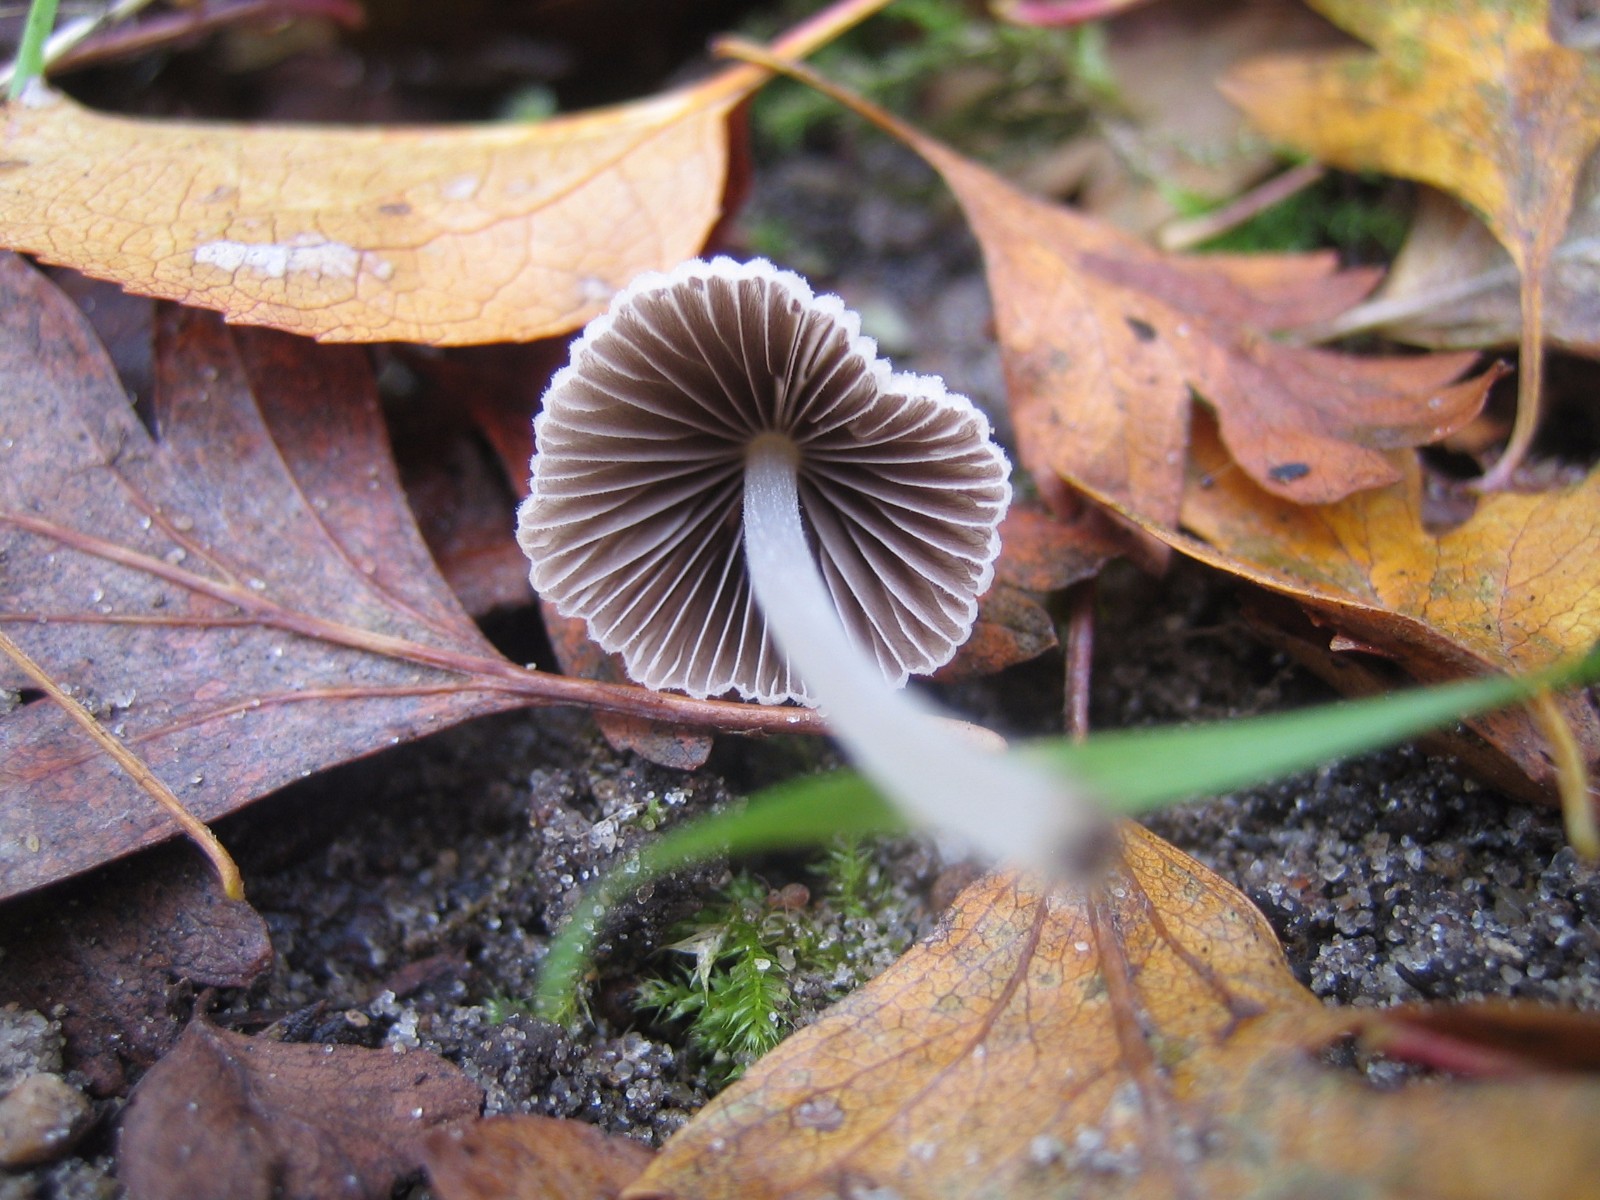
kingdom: Fungi
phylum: Basidiomycota
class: Agaricomycetes
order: Agaricales
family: Psathyrellaceae
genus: Coprinellus
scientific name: Coprinellus disseminatus
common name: bredsået blækhat
